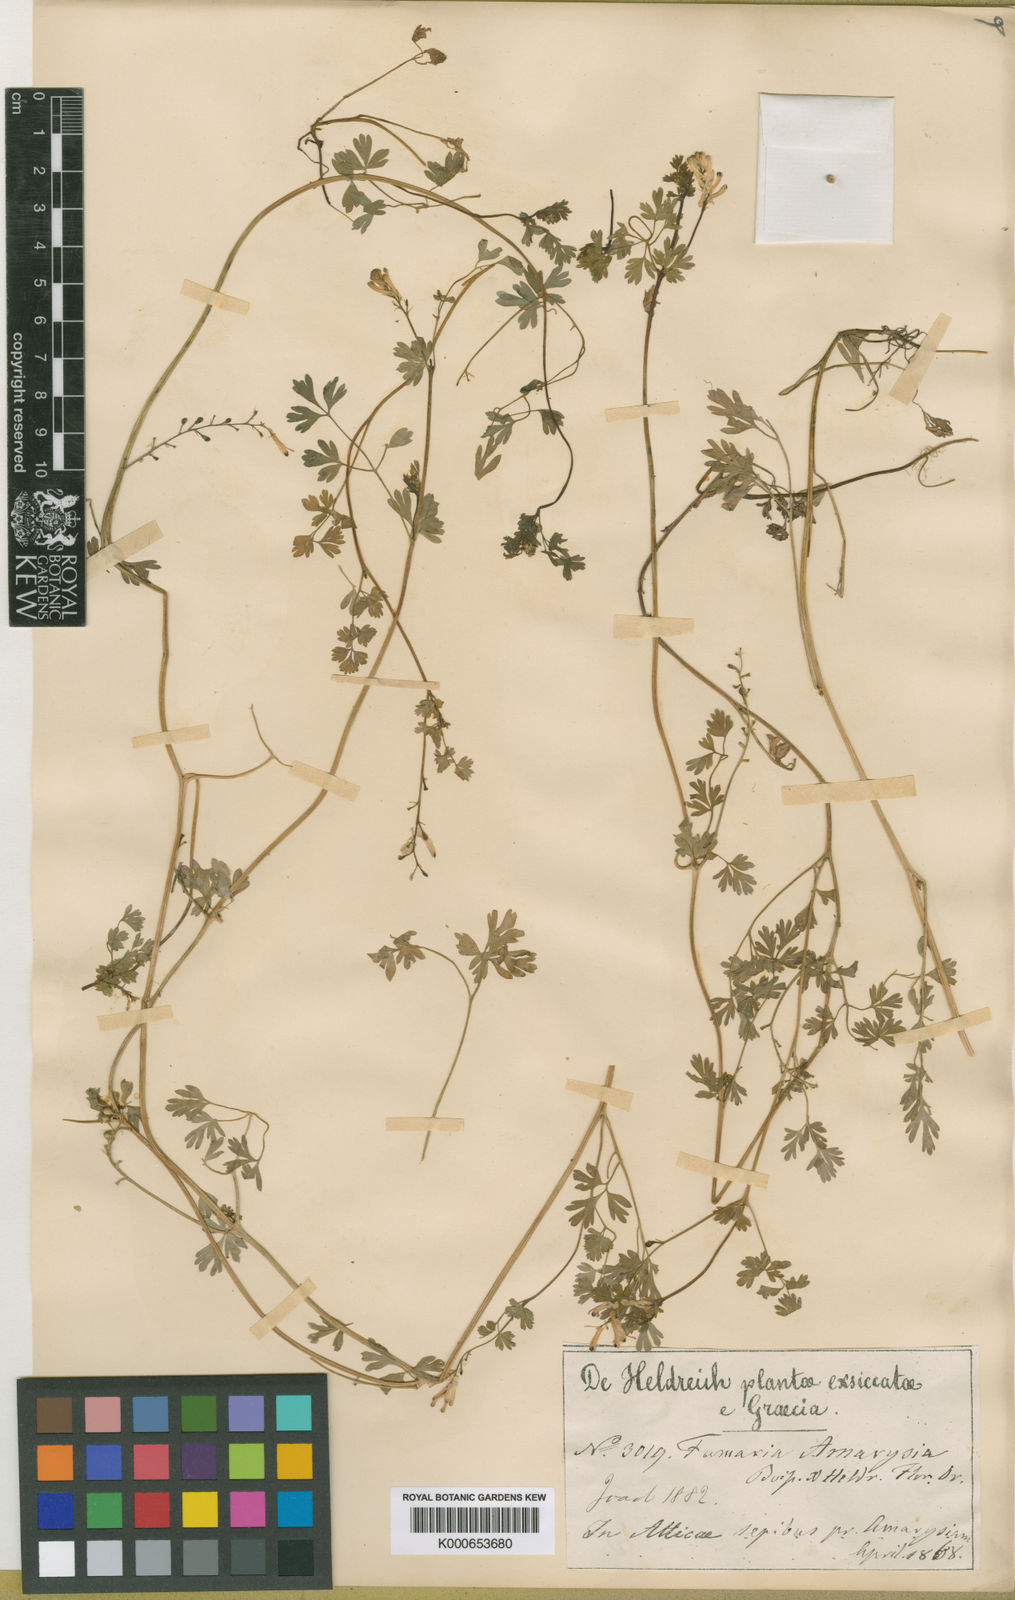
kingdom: Plantae
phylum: Tracheophyta
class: Magnoliopsida
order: Ranunculales
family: Papaveraceae
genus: Fumaria
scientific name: Fumaria judaica
